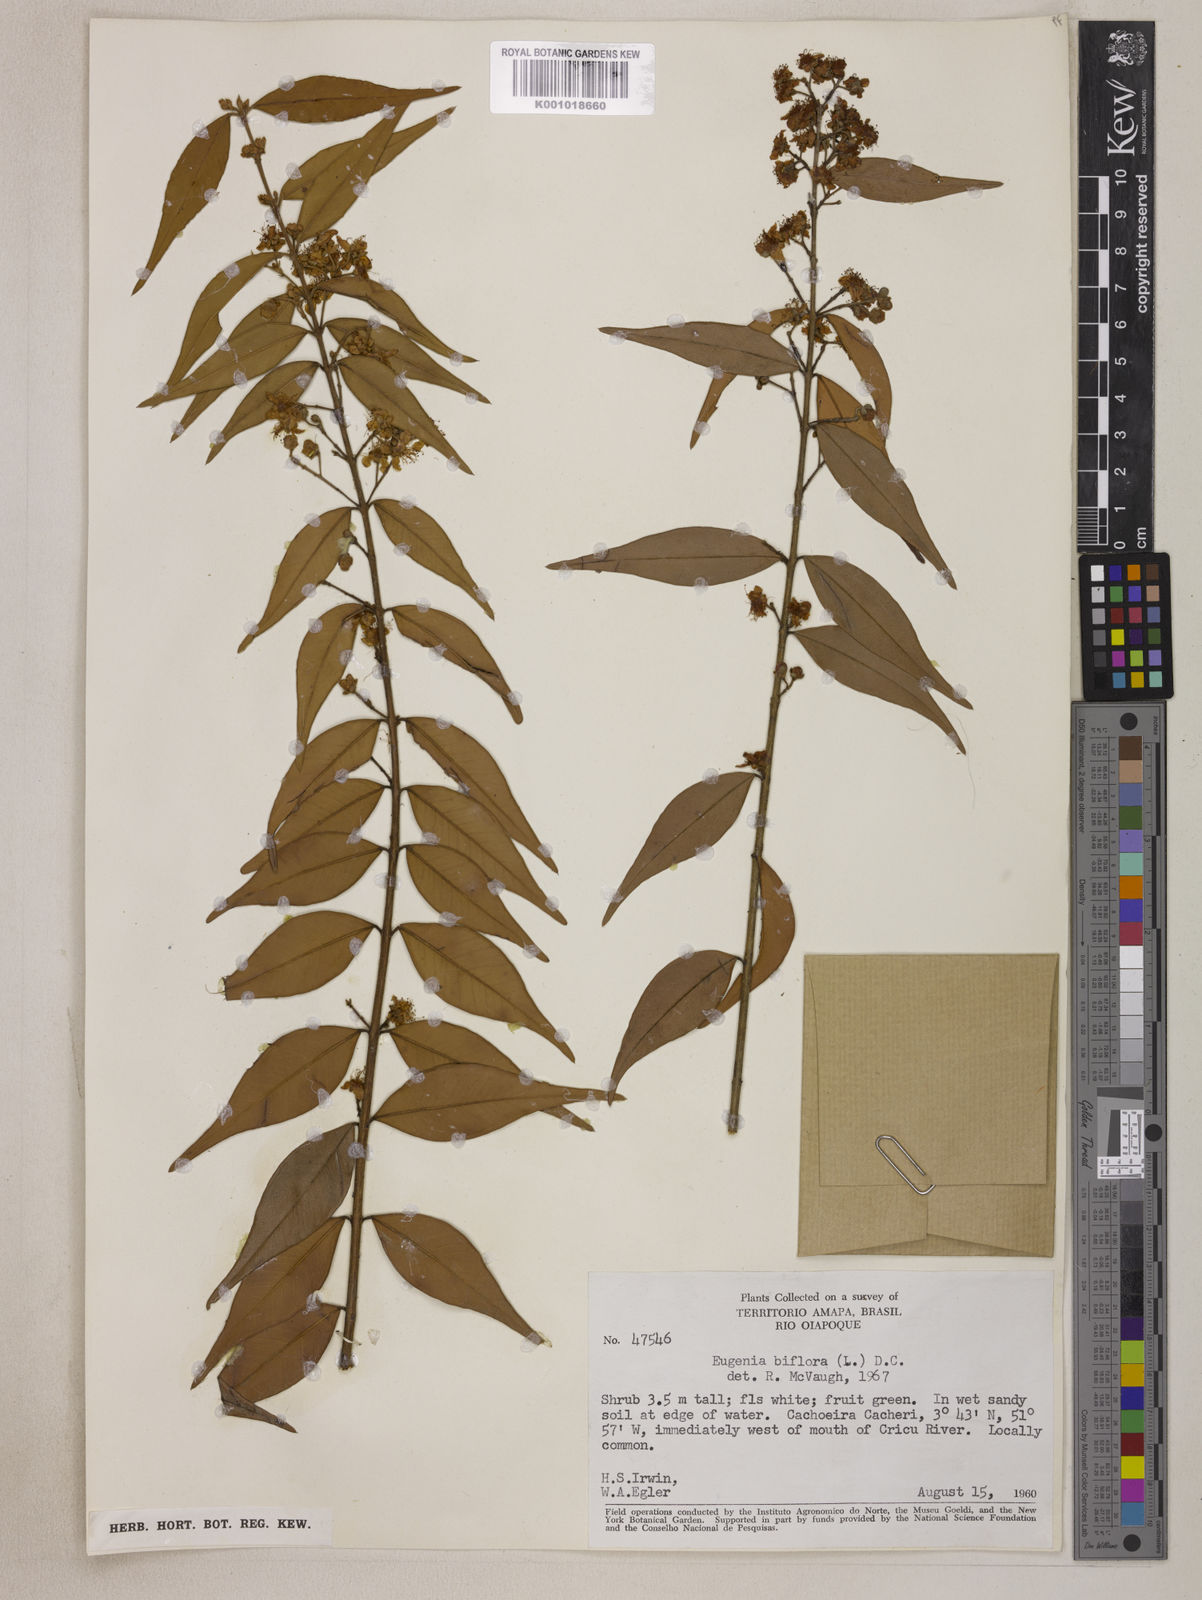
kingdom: Plantae
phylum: Tracheophyta
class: Magnoliopsida
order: Myrtales
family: Myrtaceae
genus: Eugenia
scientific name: Eugenia biflora
